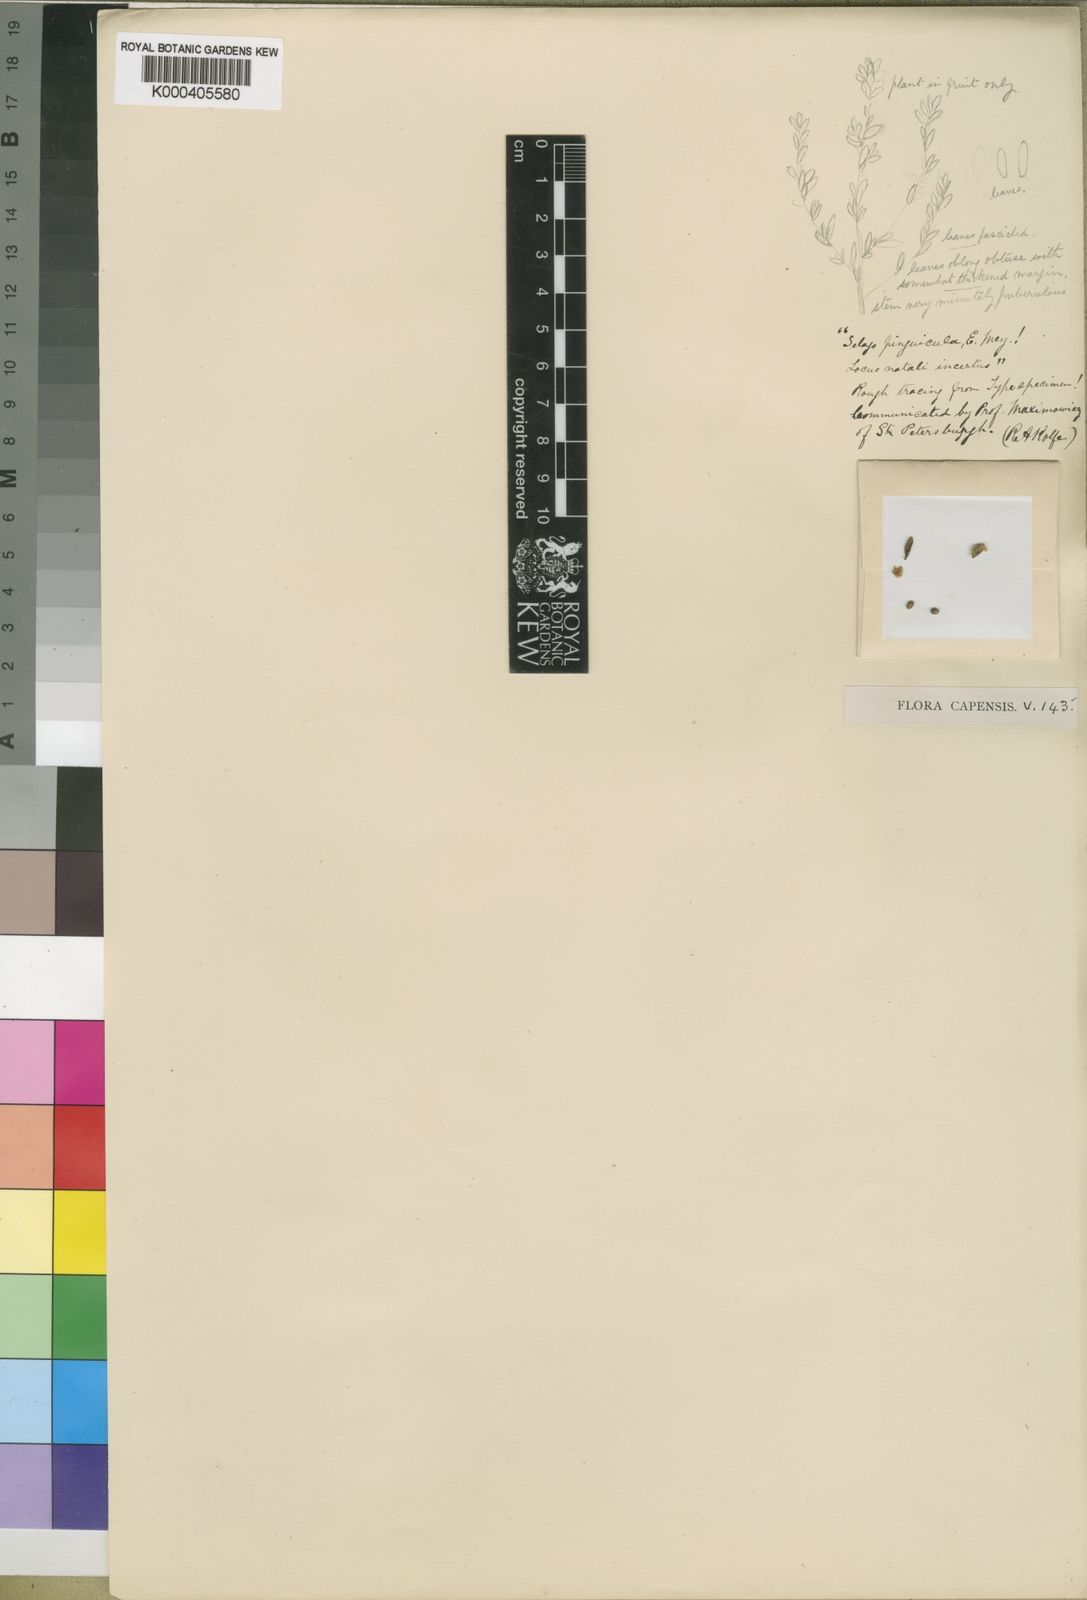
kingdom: Plantae
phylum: Tracheophyta
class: Magnoliopsida
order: Lamiales
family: Scrophulariaceae
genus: Selago
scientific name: Selago pinguicula
